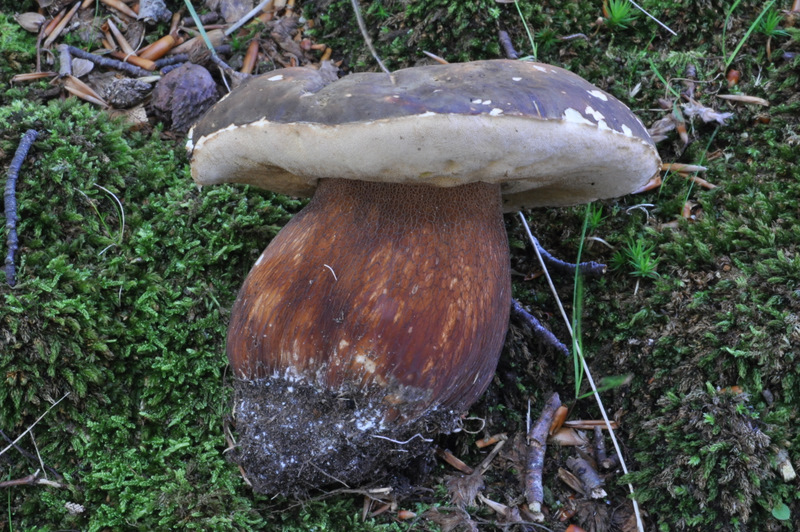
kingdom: Fungi
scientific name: Fungi
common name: bronze-rørhat
